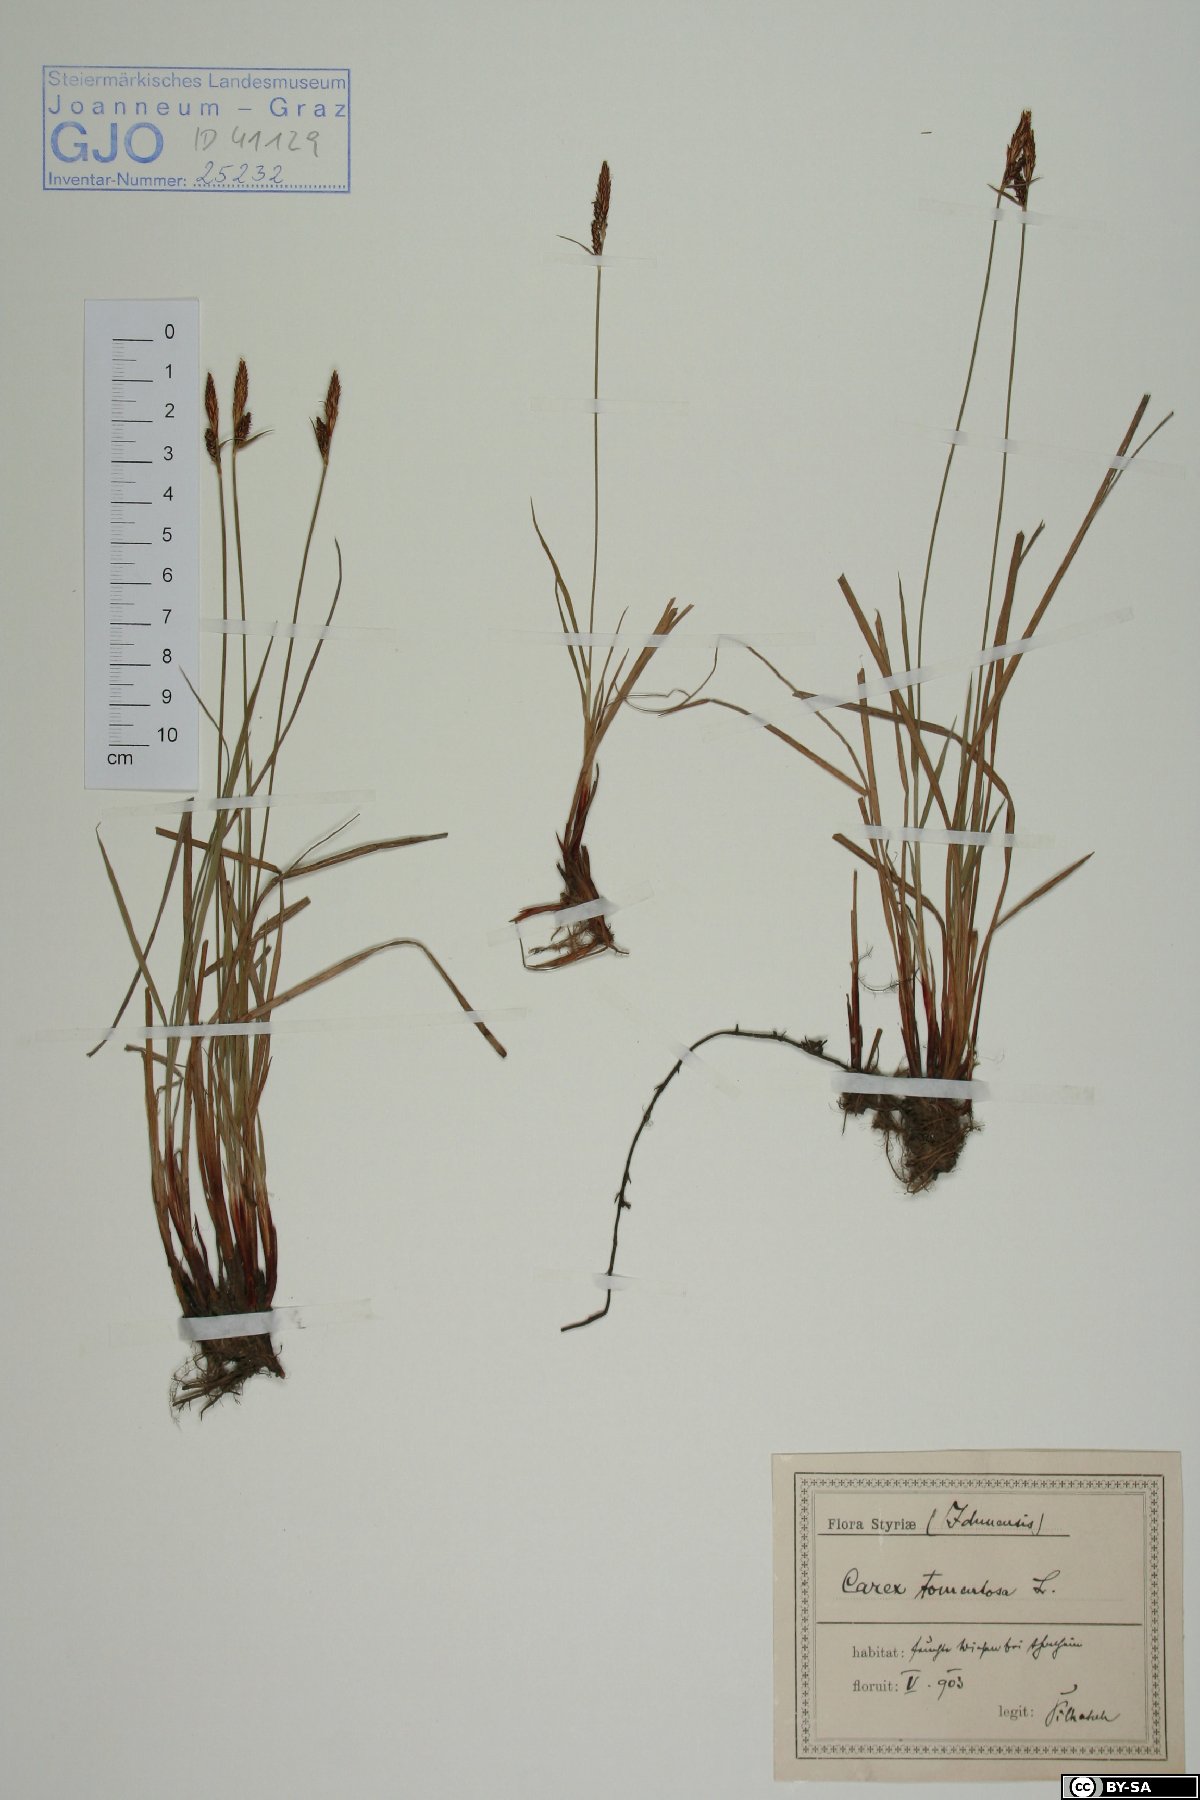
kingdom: Plantae
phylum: Tracheophyta
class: Liliopsida
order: Poales
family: Cyperaceae
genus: Carex
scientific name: Carex tomentosa
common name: Downy-fruited sedge
